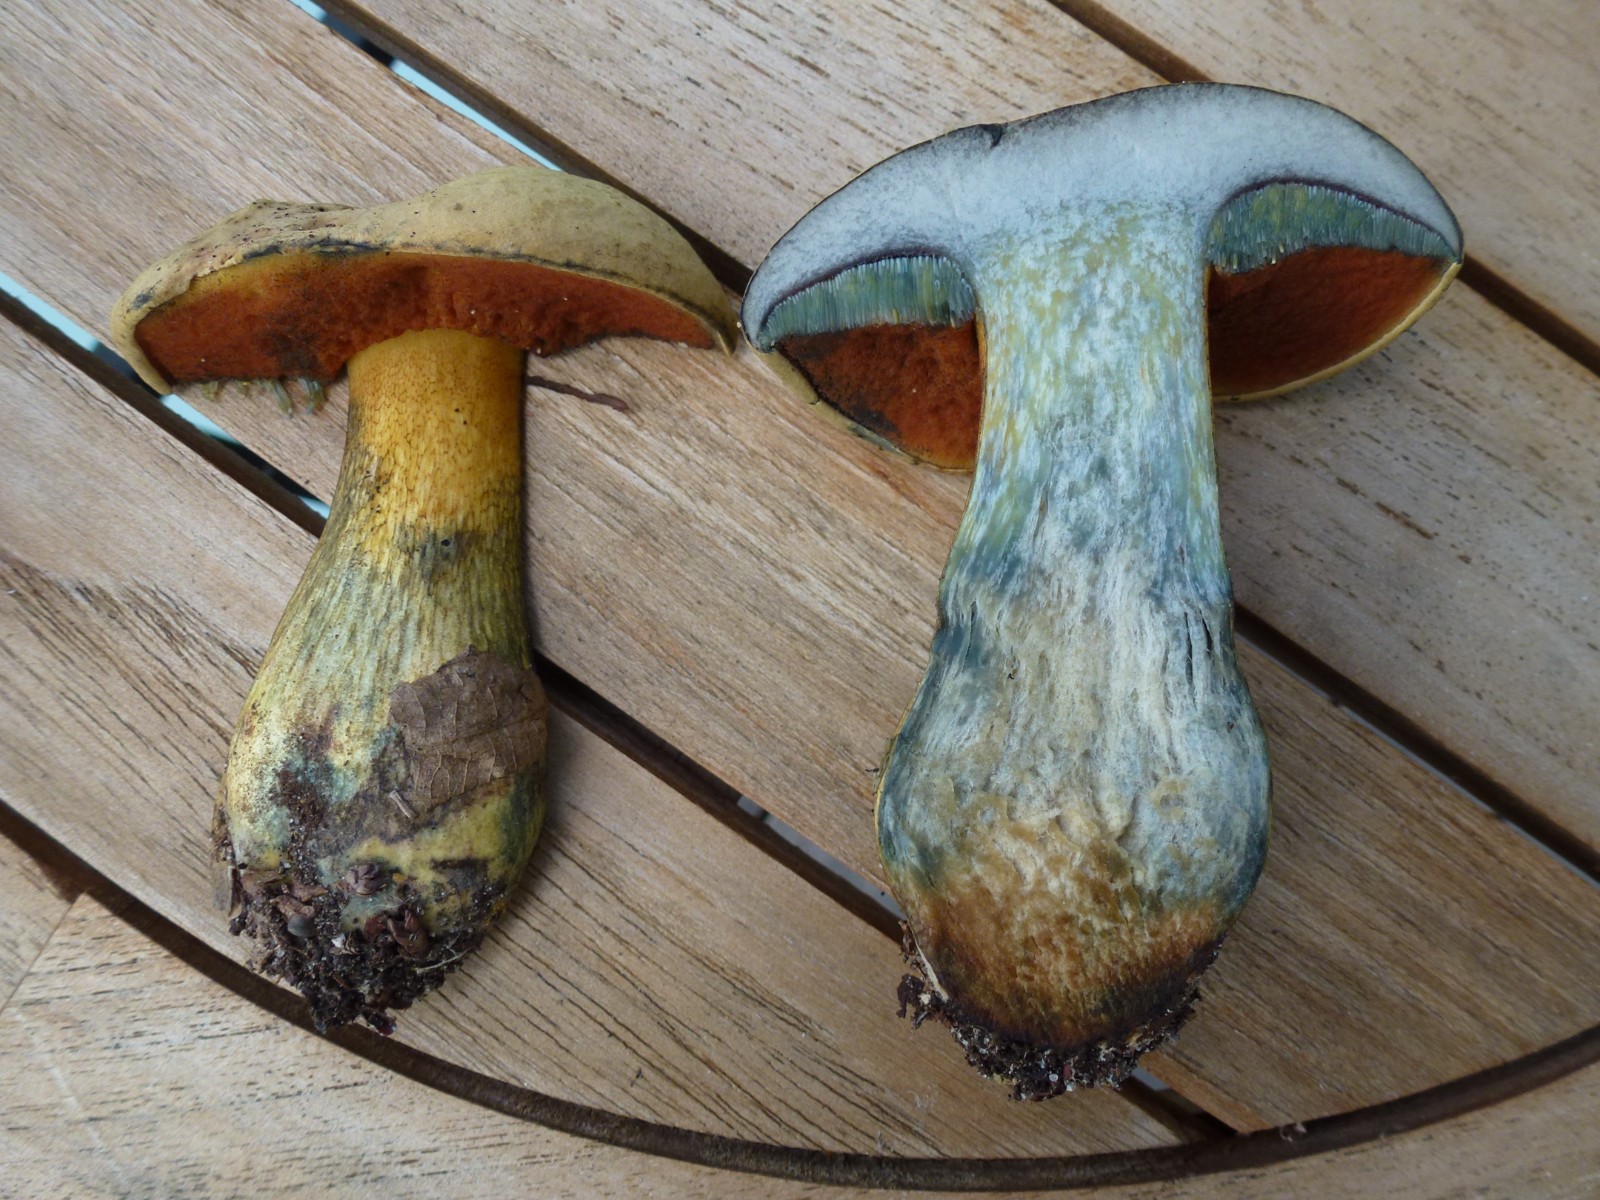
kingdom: Fungi
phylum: Basidiomycota
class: Agaricomycetes
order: Boletales
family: Boletaceae
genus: Suillellus
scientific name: Suillellus luridus
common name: netstokket indigorørhat
